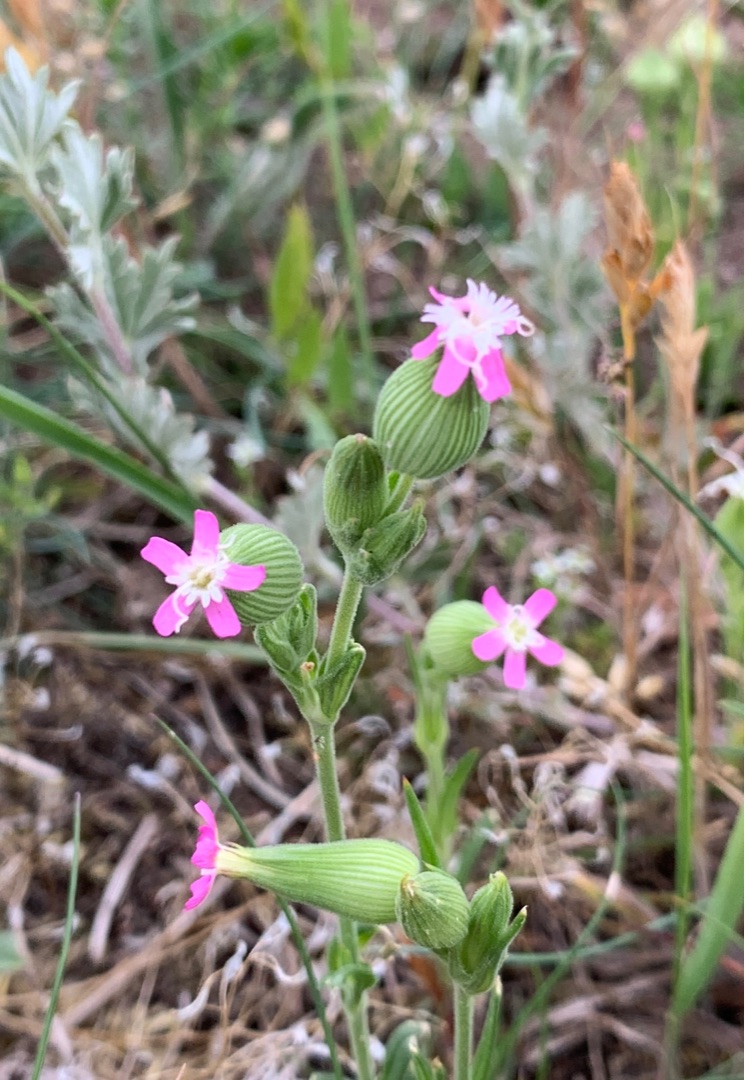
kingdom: Plantae
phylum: Tracheophyta
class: Magnoliopsida
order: Caryophyllales
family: Caryophyllaceae
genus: Silene
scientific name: Silene conica
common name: Kegle-limurt
